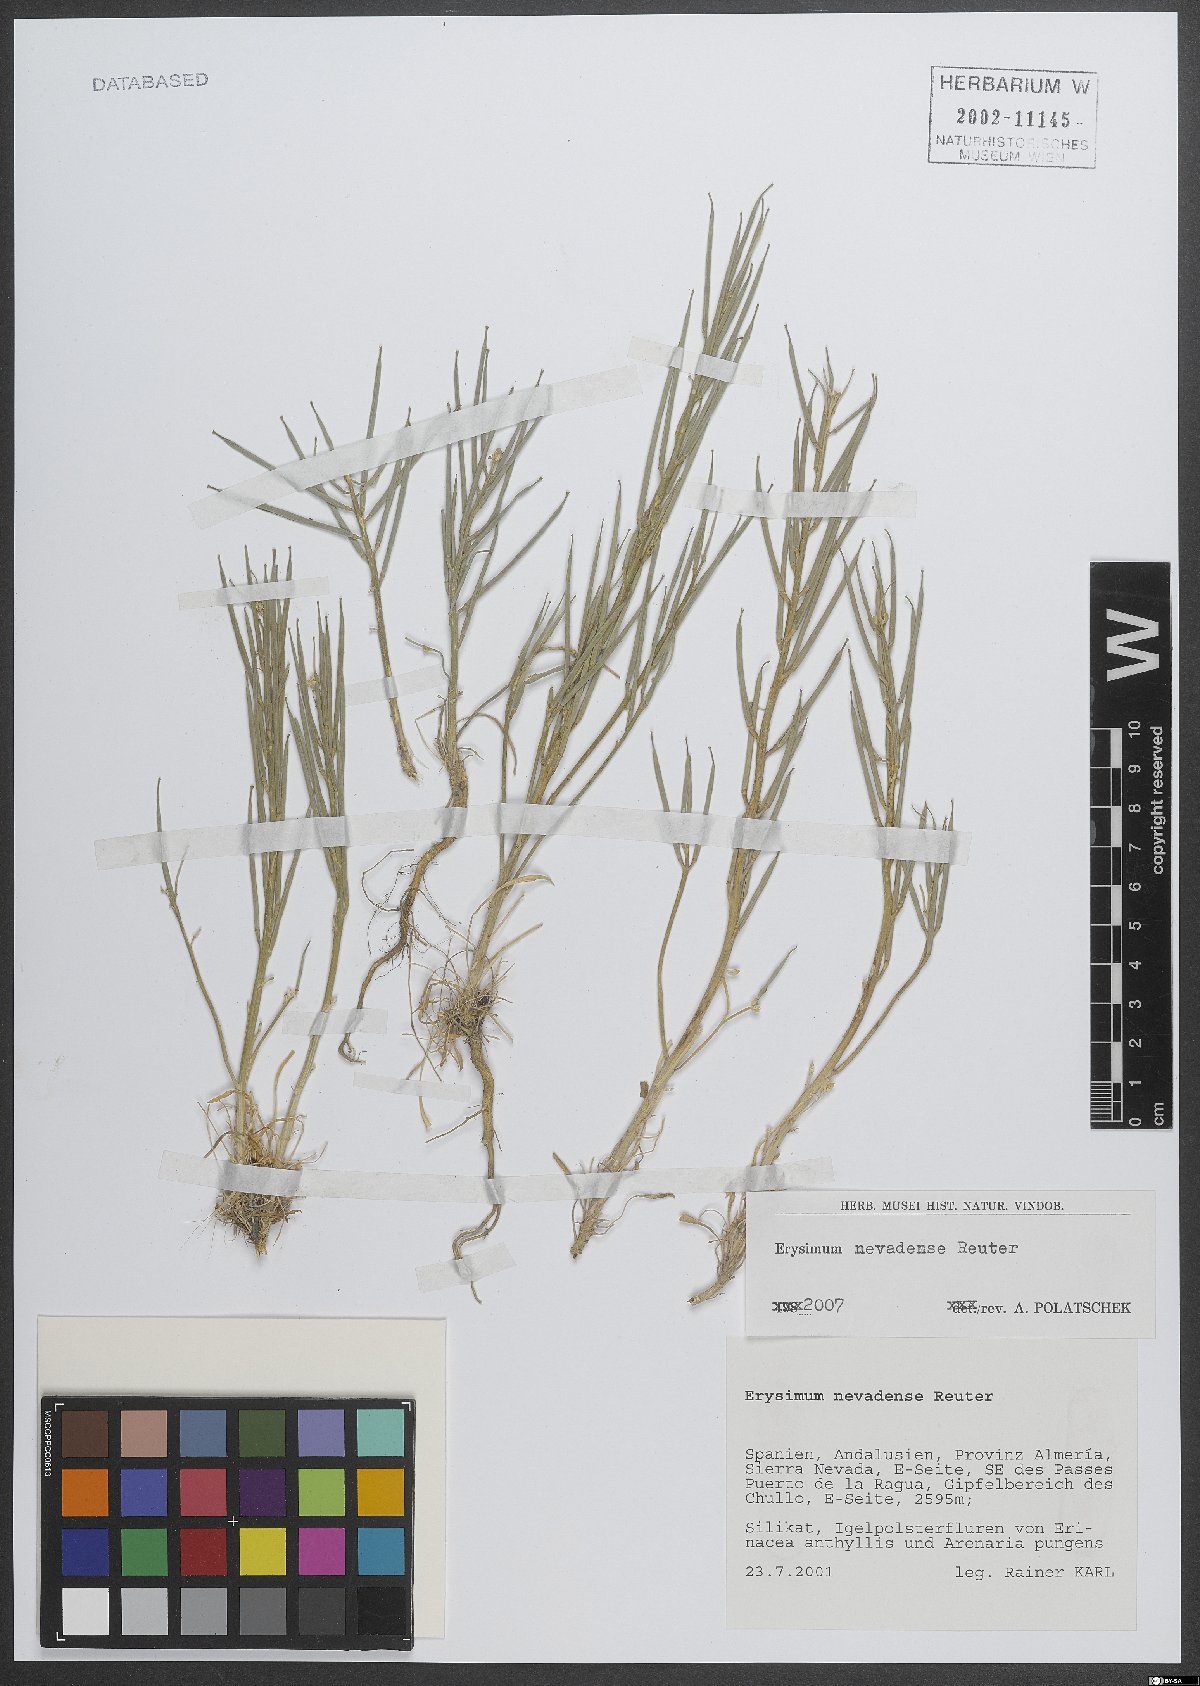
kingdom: Plantae
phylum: Tracheophyta
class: Magnoliopsida
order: Brassicales
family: Brassicaceae
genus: Erysimum
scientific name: Erysimum nevadense
